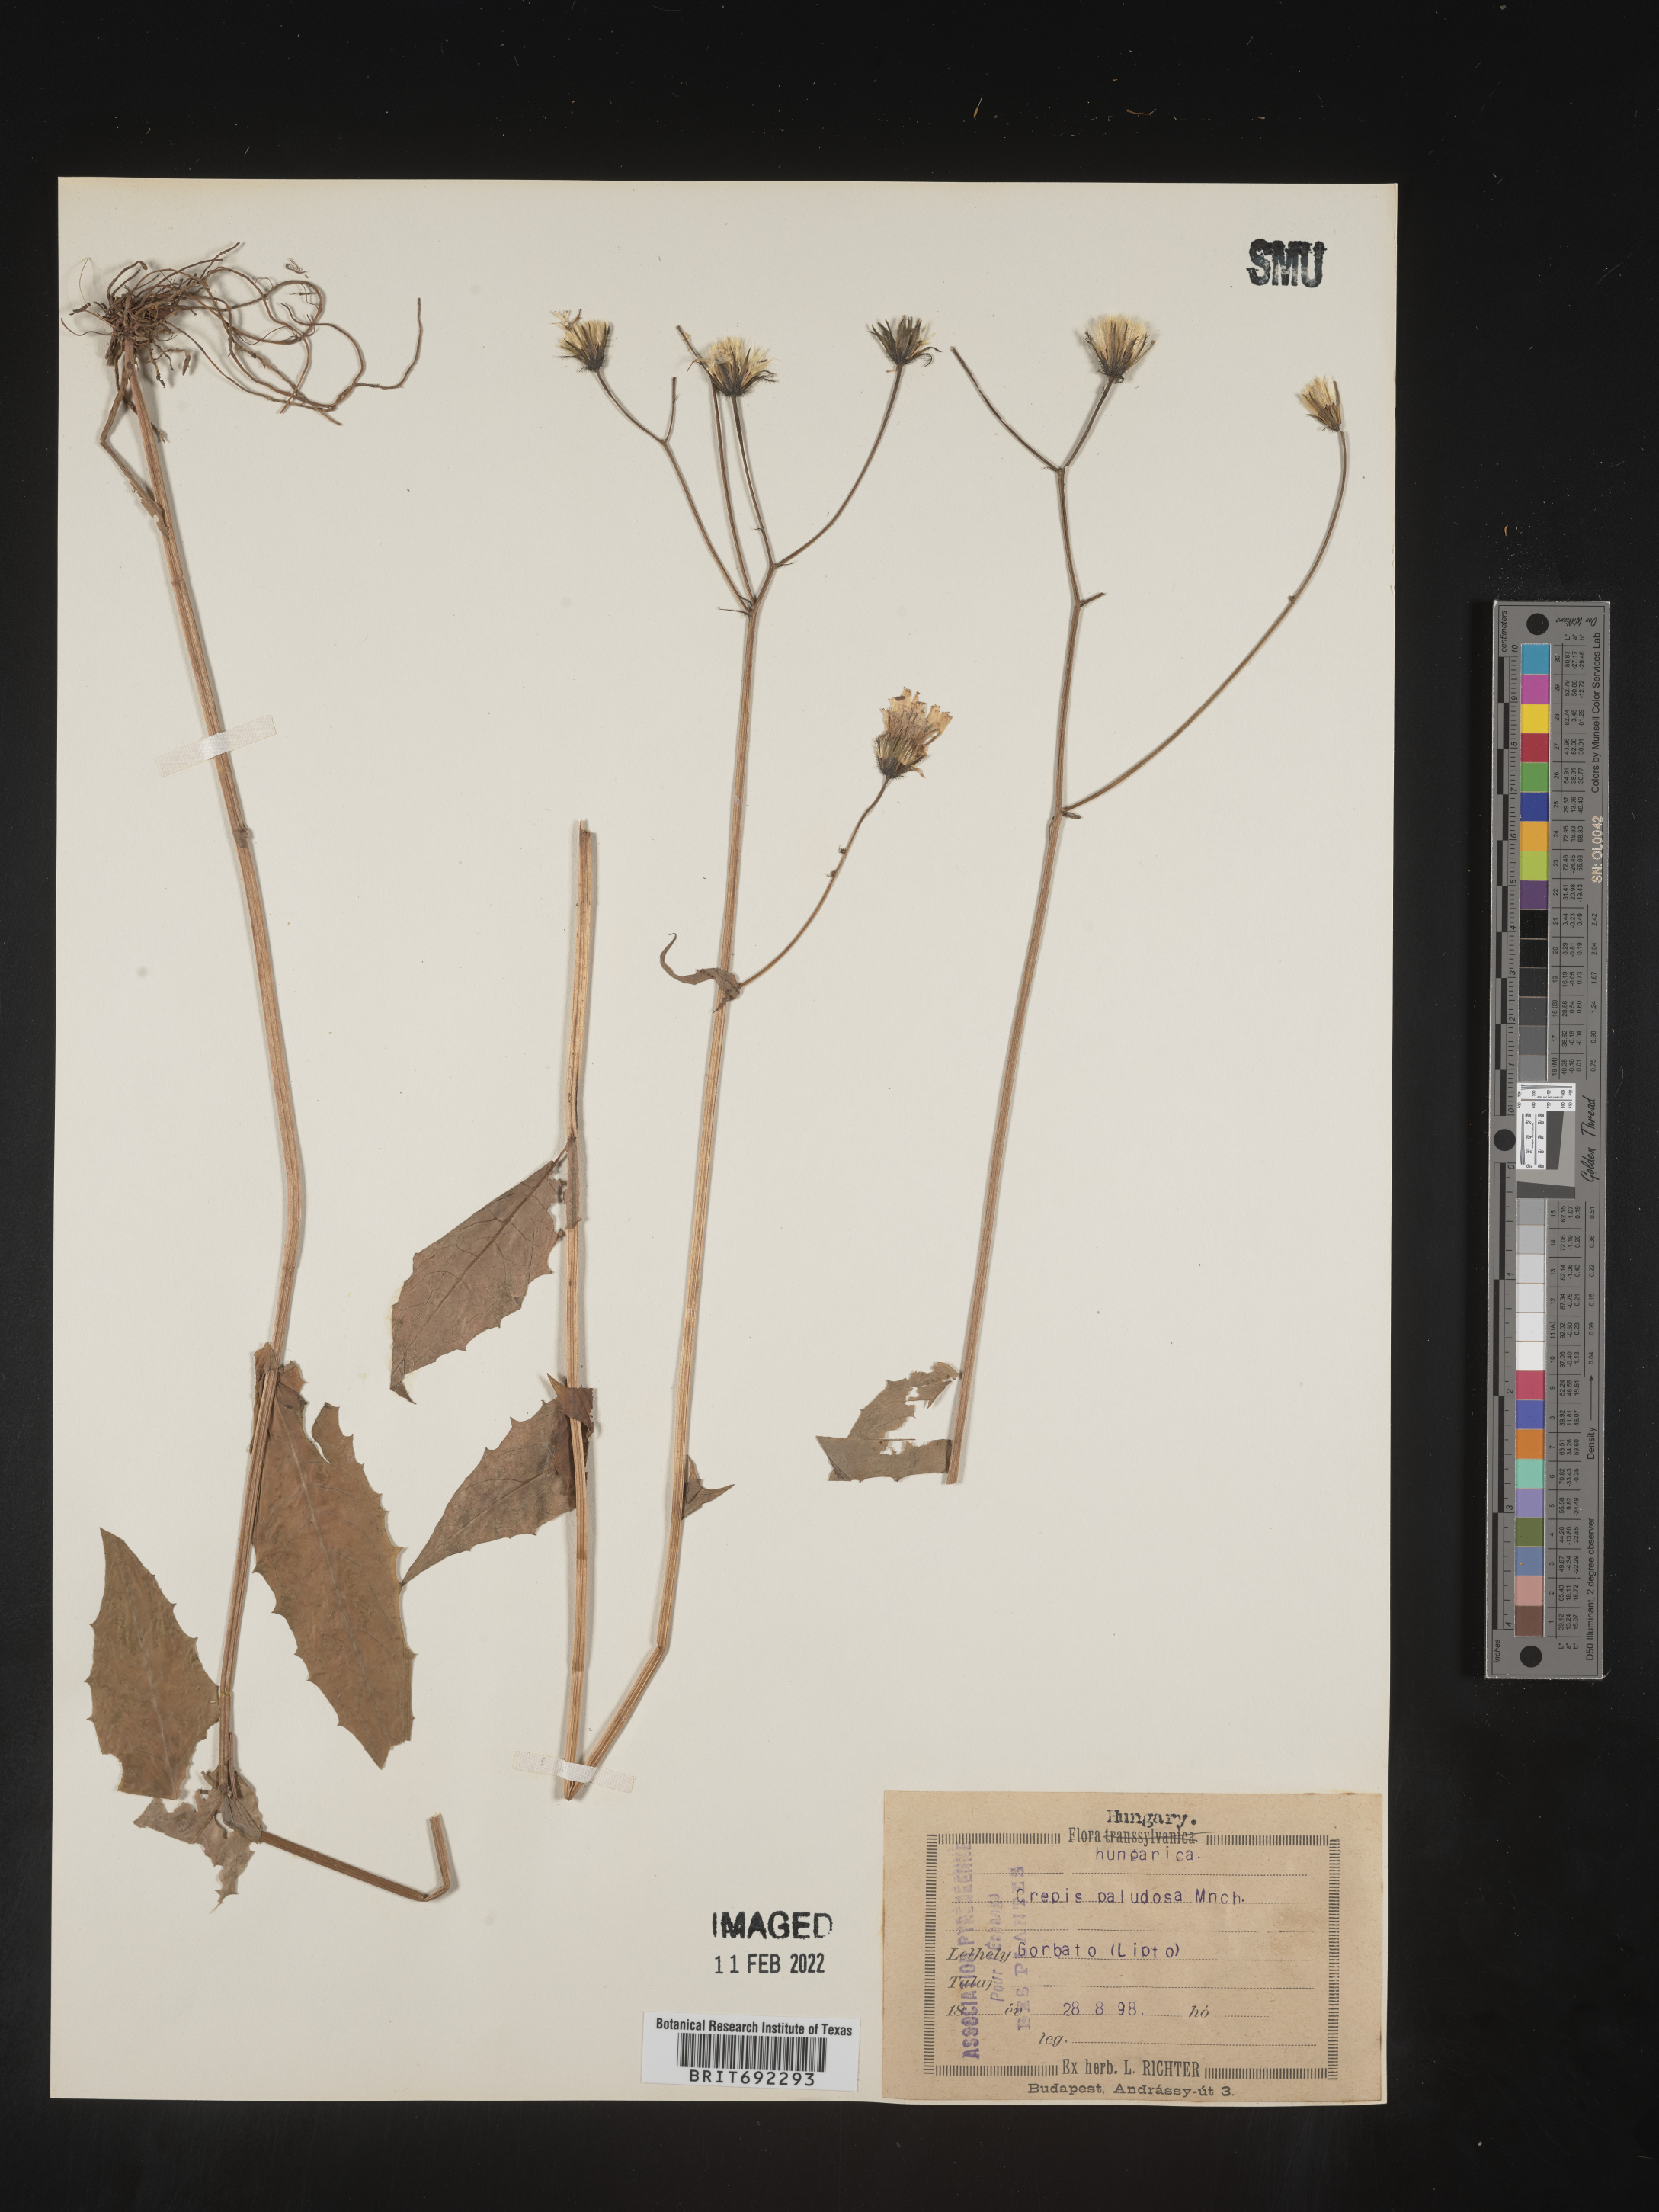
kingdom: Plantae
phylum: Tracheophyta
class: Magnoliopsida
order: Asterales
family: Asteraceae
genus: Crepis
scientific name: Crepis
